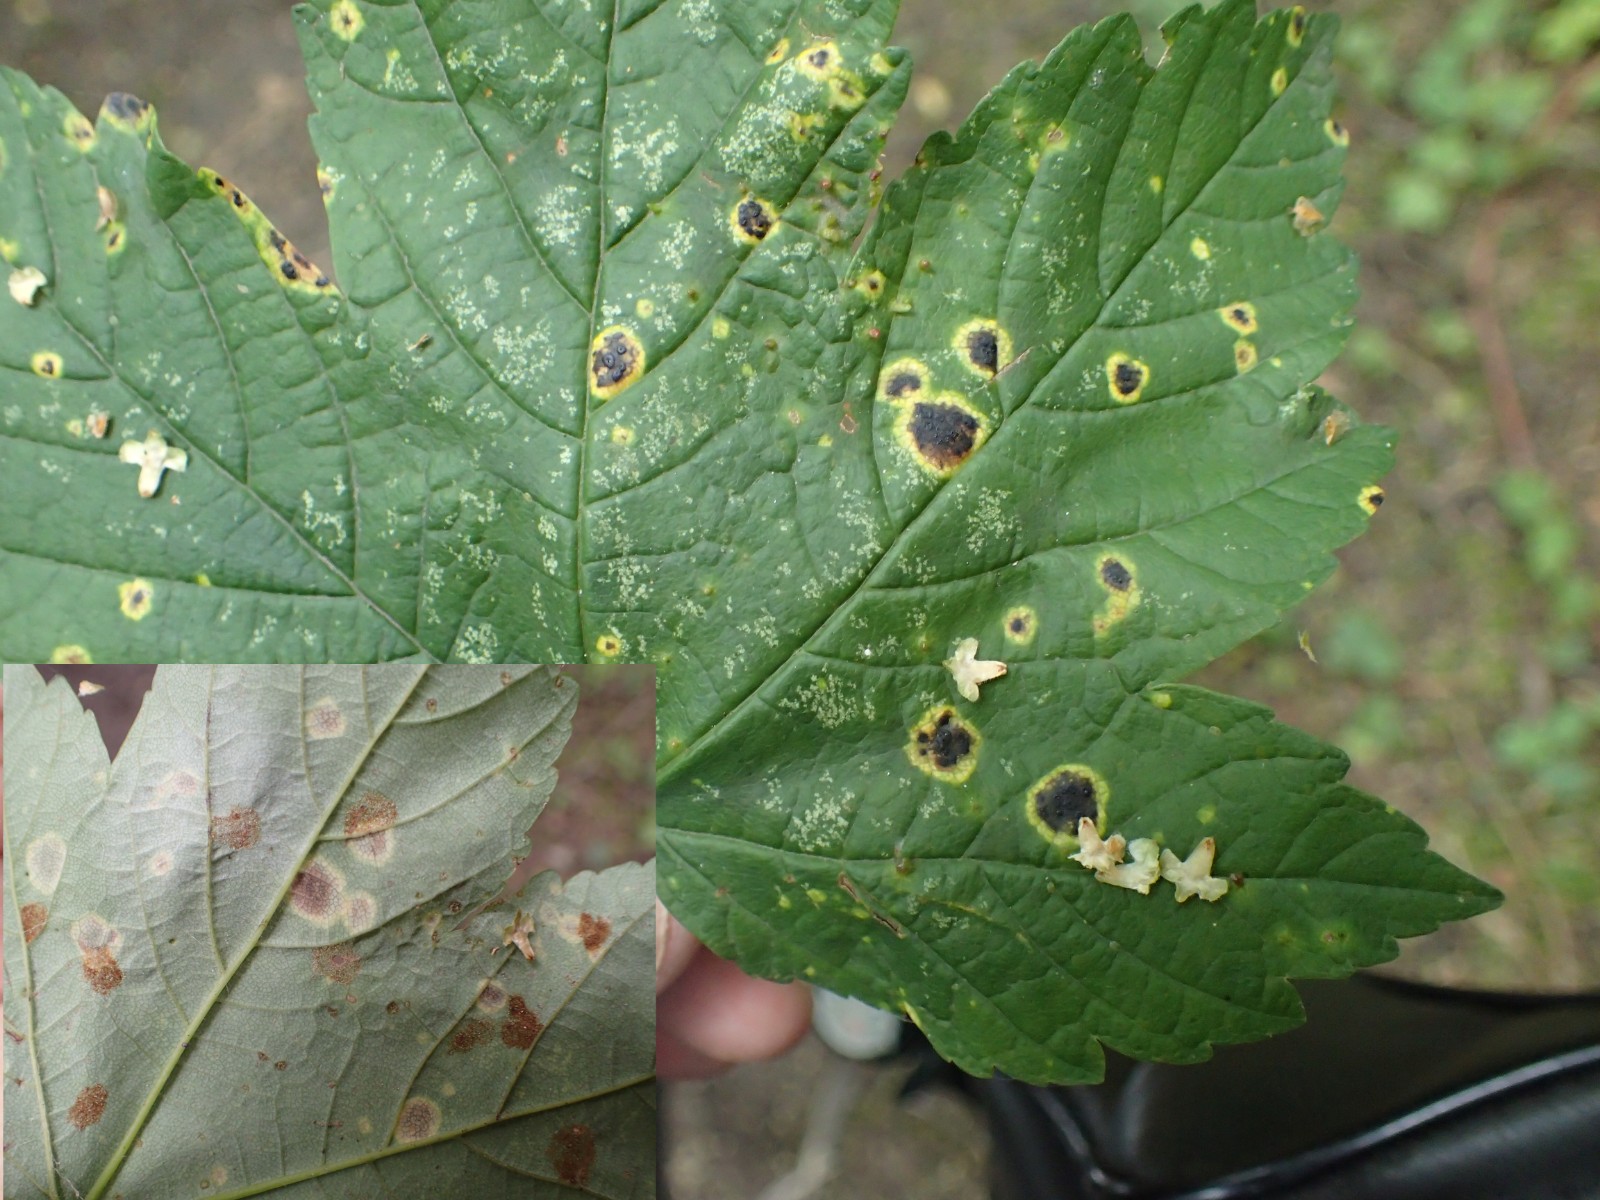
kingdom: Fungi
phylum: Ascomycota
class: Leotiomycetes
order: Rhytismatales
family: Rhytismataceae
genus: Rhytisma
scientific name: Rhytisma acerinum
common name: ahorn-rynkeplet
